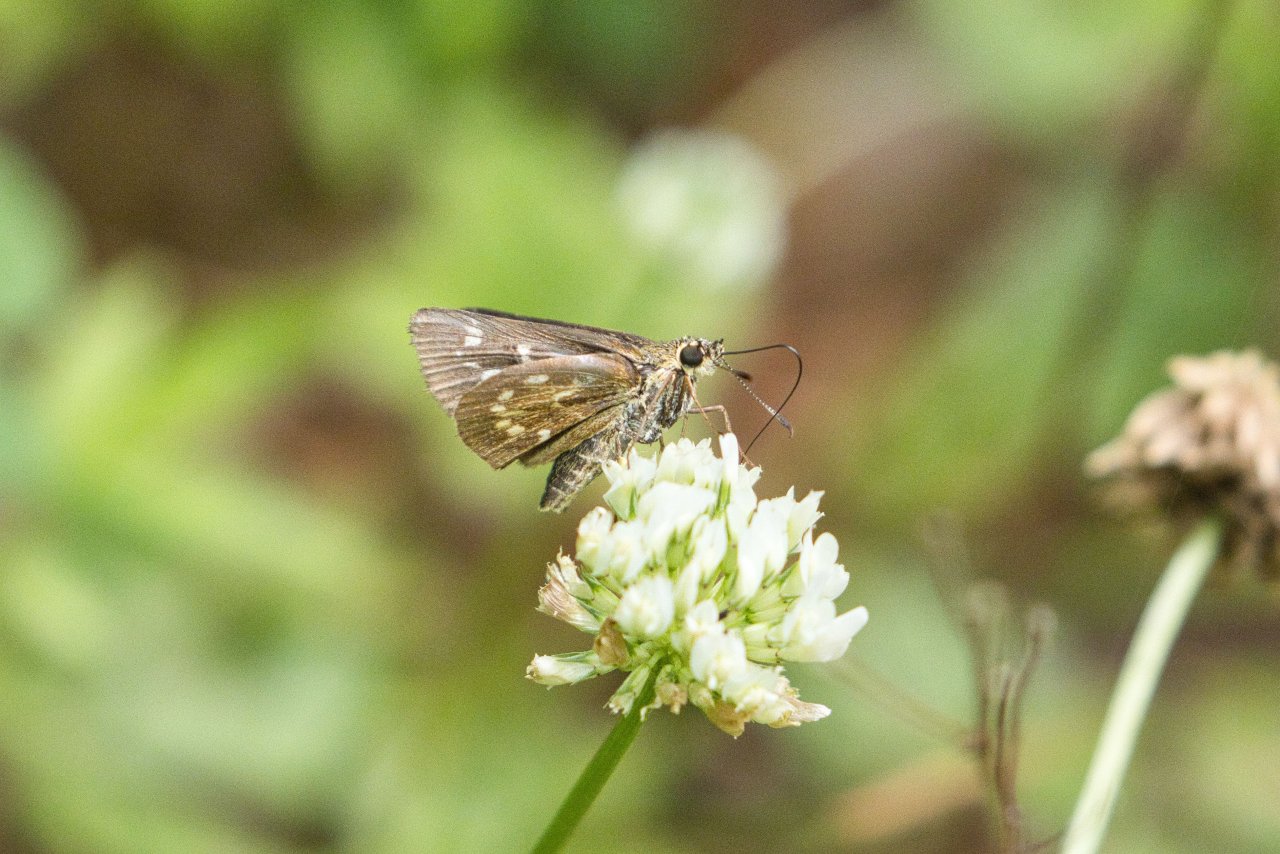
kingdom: Animalia
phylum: Arthropoda
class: Insecta
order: Lepidoptera
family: Hesperiidae
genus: Mastor
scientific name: Mastor carolina
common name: Reversed Roadside-skipper
